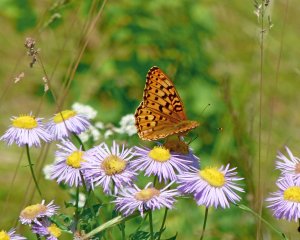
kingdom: Animalia
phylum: Arthropoda
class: Insecta
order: Lepidoptera
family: Nymphalidae
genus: Speyeria
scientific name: Speyeria zerene
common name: Zerene Fritillary
